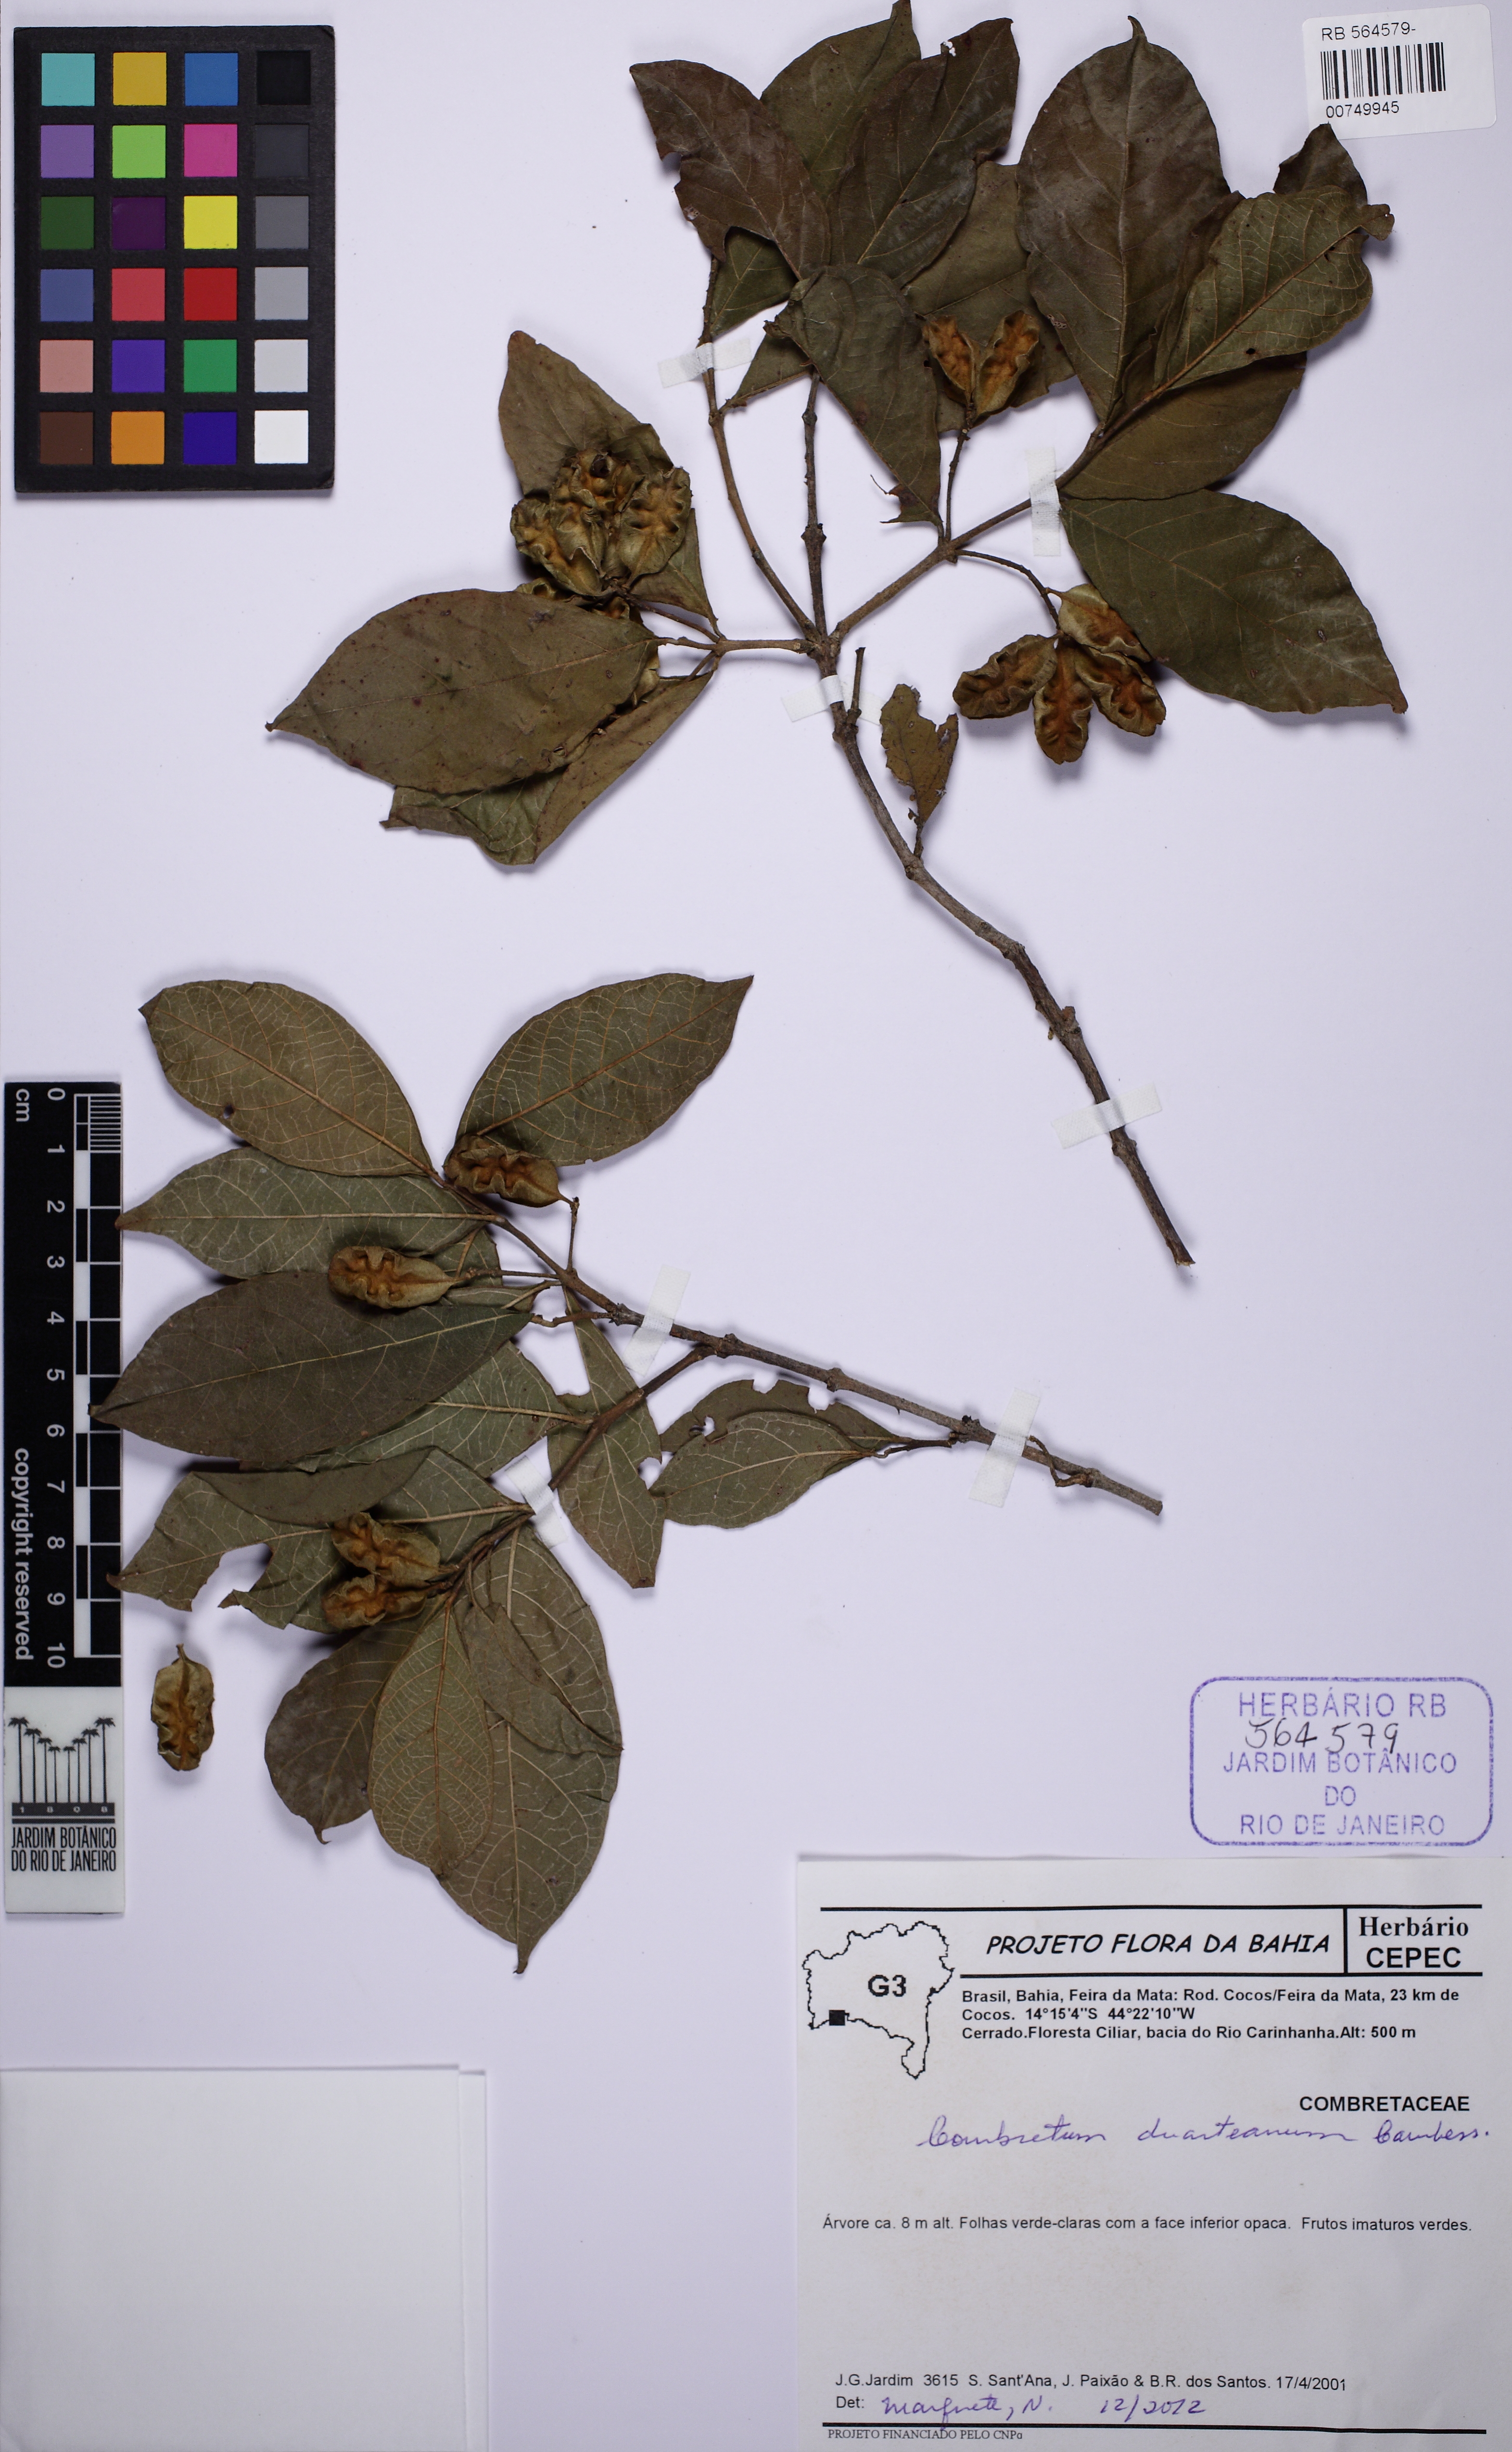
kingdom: Plantae
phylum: Tracheophyta
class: Magnoliopsida
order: Myrtales
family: Combretaceae
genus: Combretum
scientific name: Combretum duarteanum
